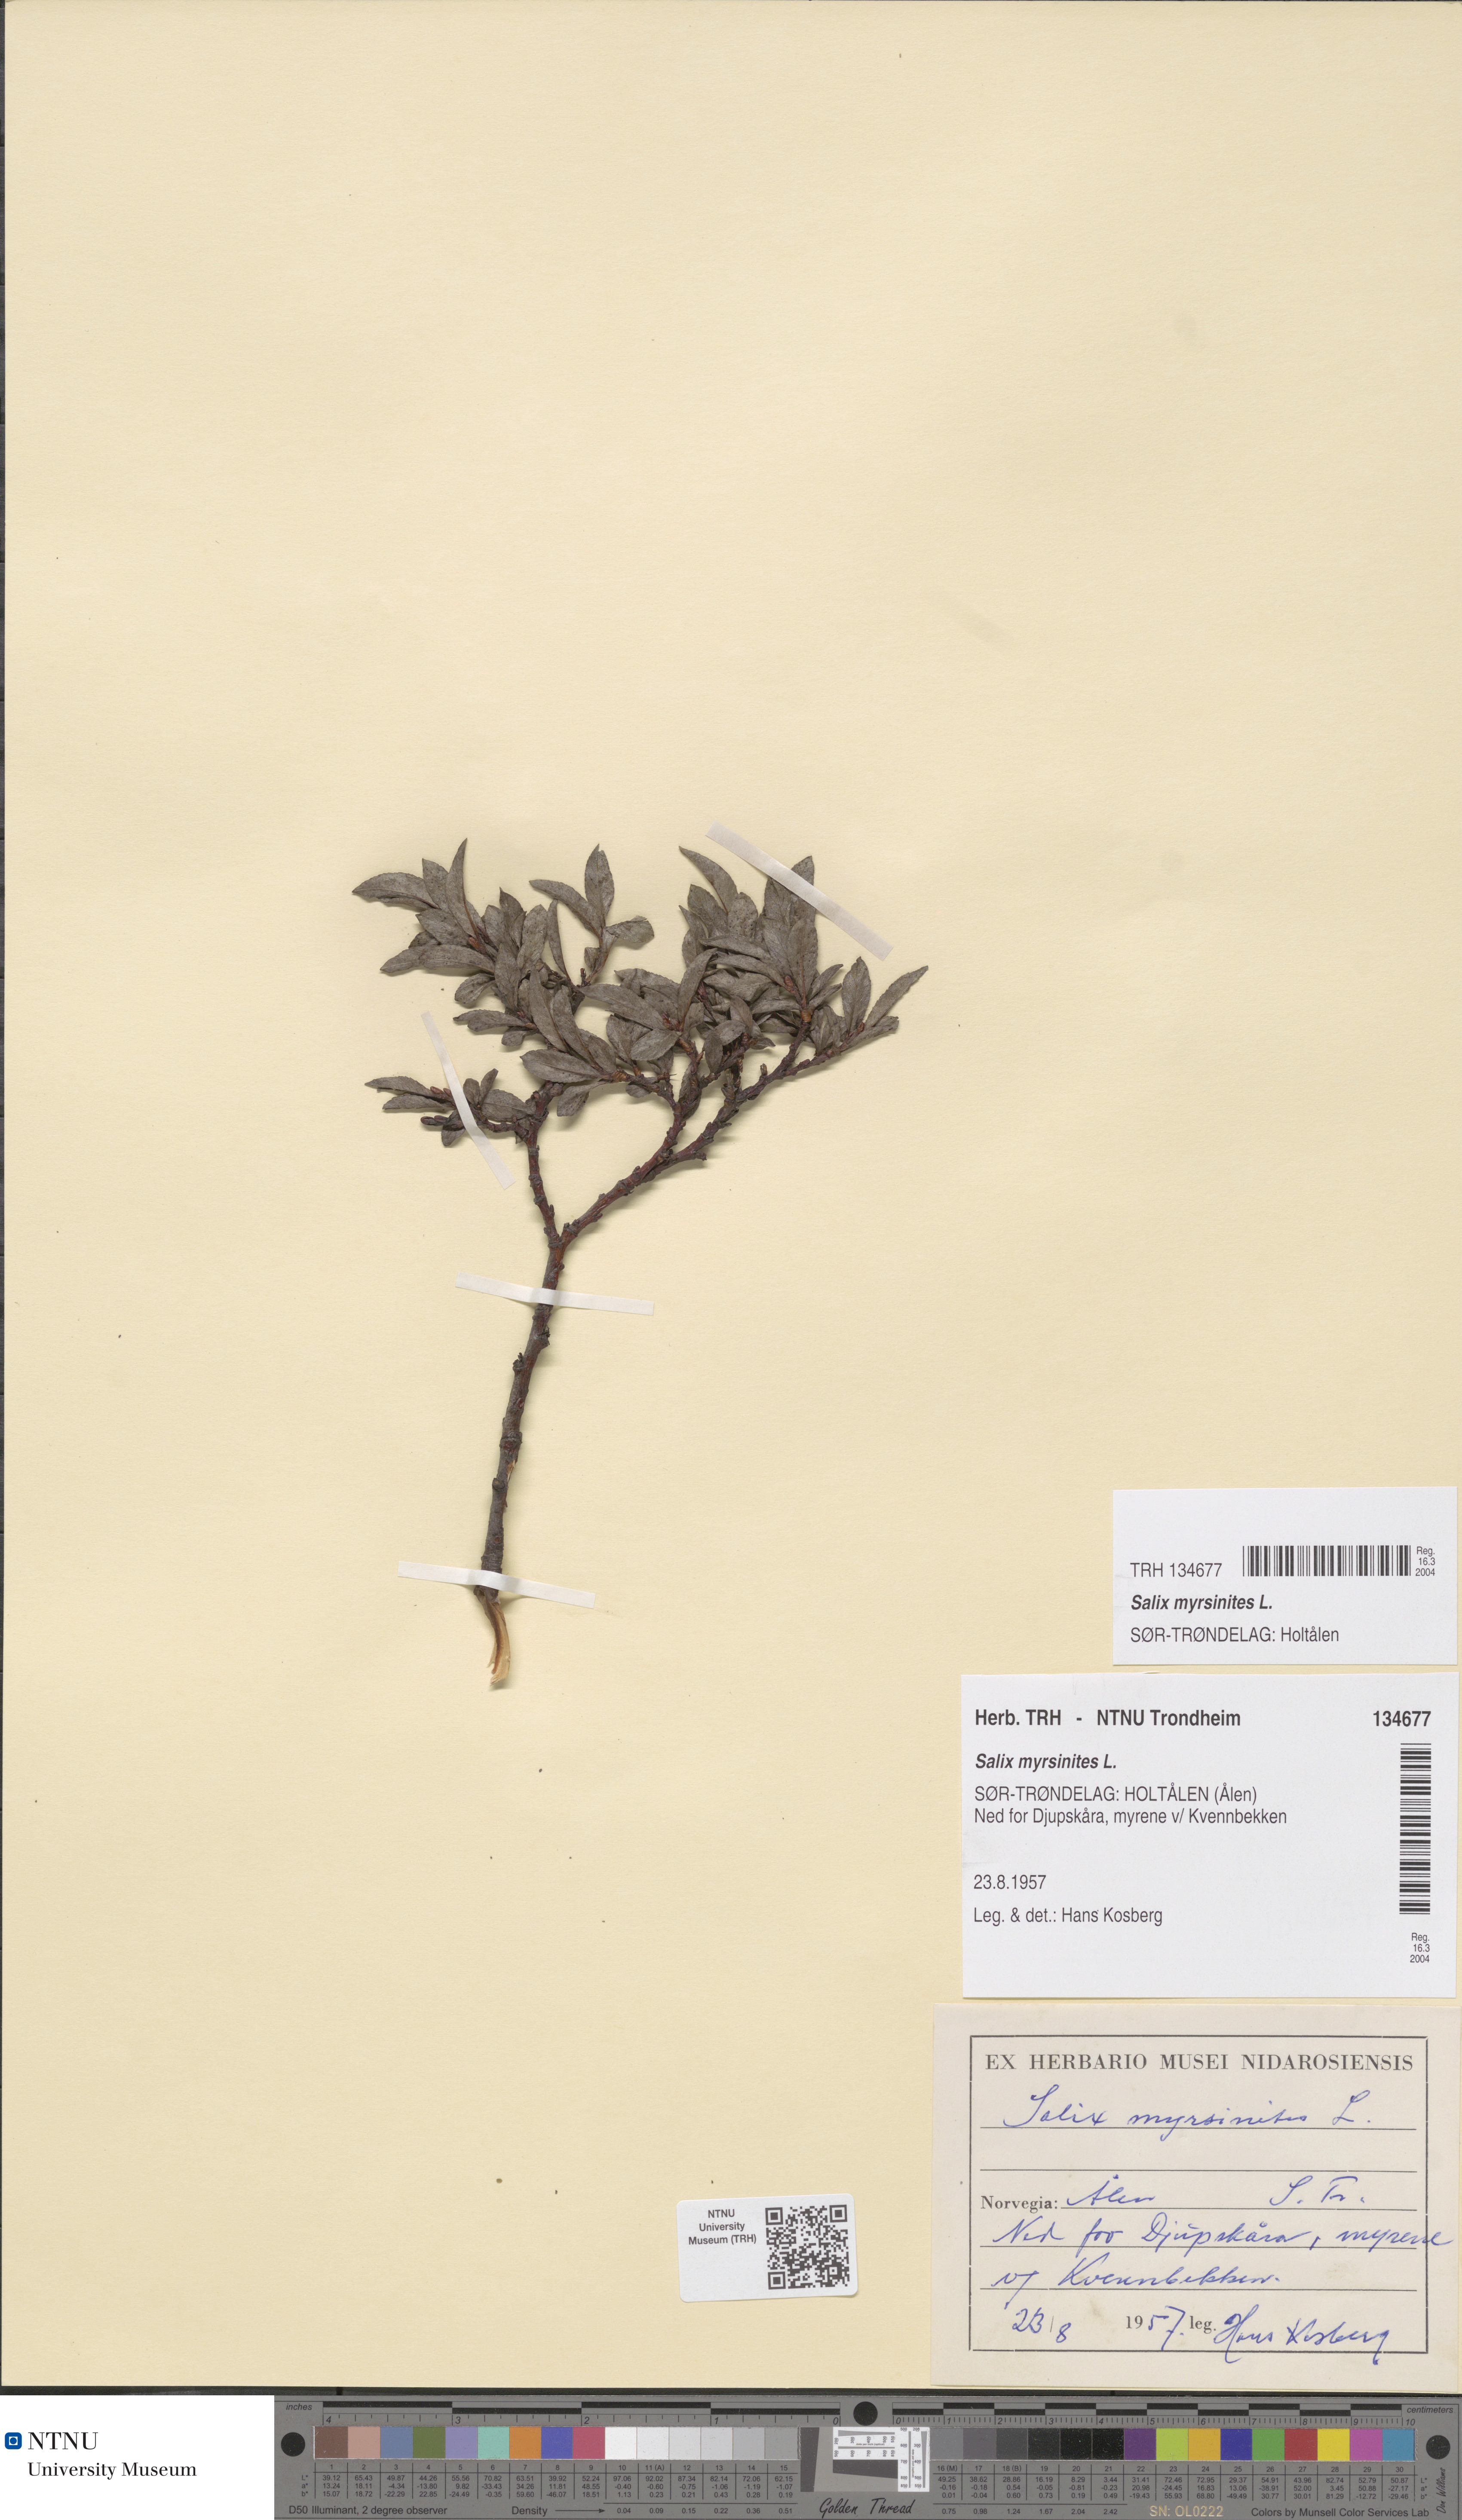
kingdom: Plantae
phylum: Tracheophyta
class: Magnoliopsida
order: Malpighiales
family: Salicaceae
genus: Salix
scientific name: Salix myrsinites
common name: Myrtle willow
